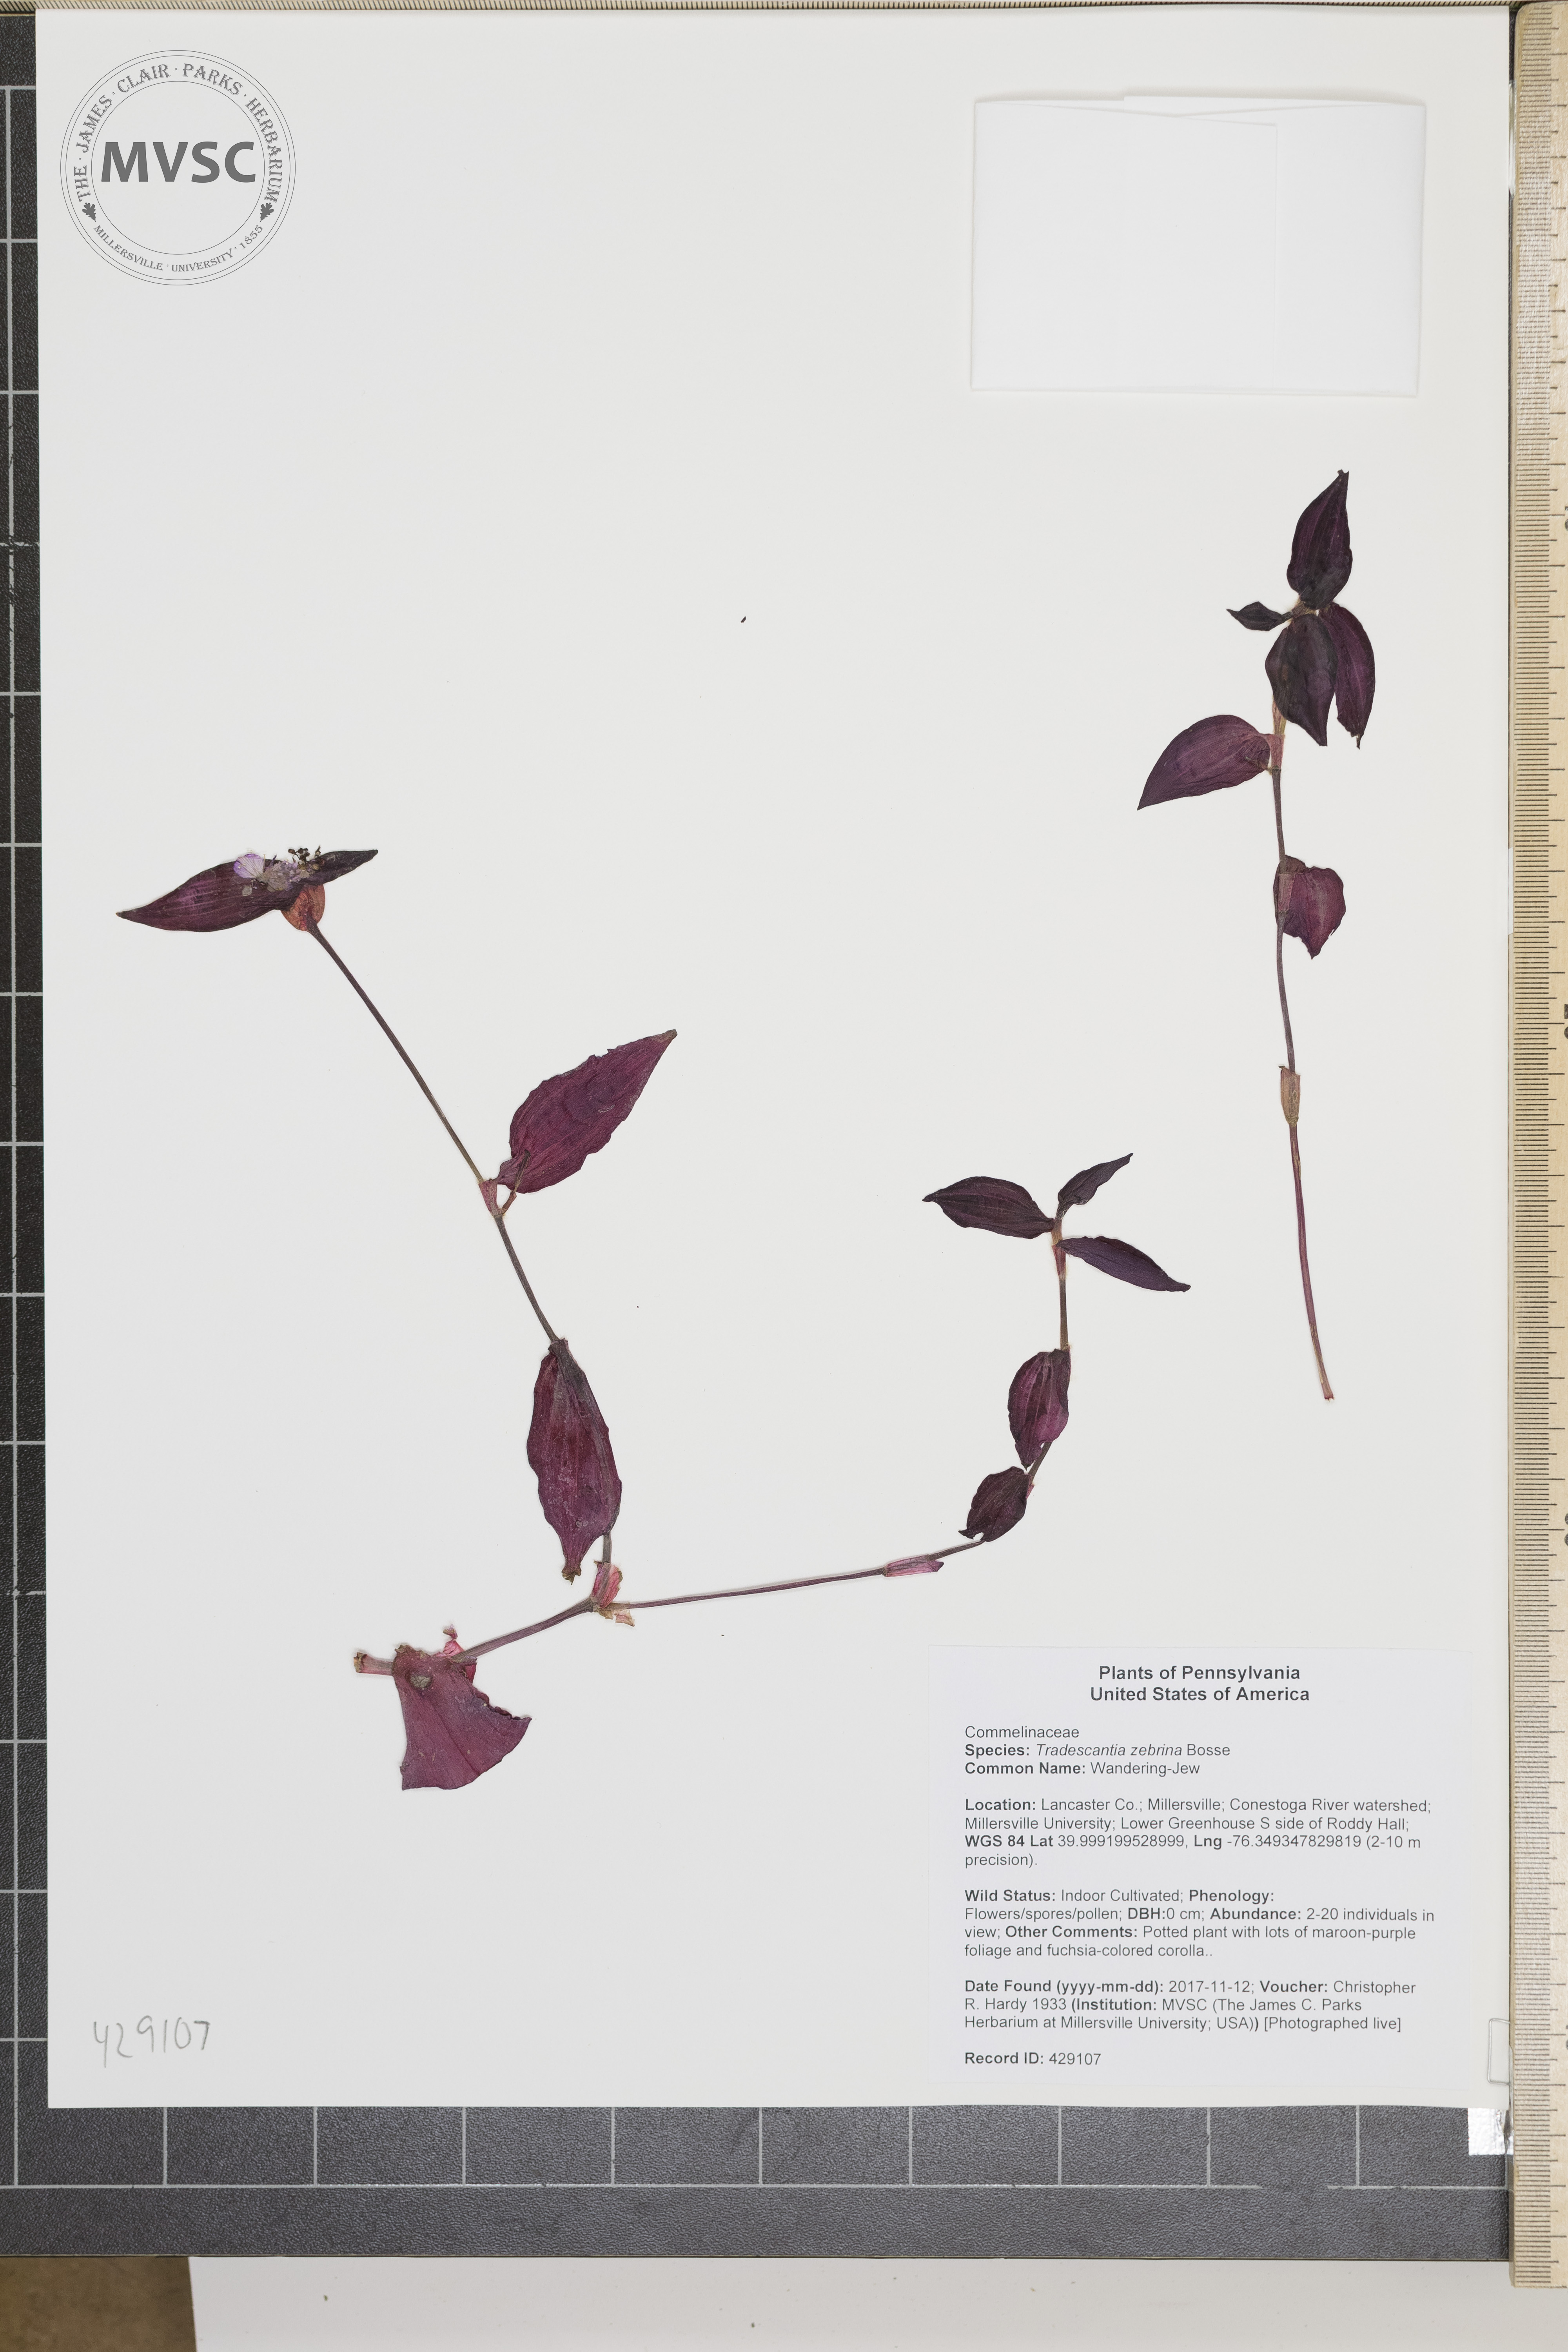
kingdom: Plantae
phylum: Tracheophyta
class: Liliopsida
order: Commelinales
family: Commelinaceae
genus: Tradescantia
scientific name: Tradescantia zebrina
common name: Wandering-Jew
